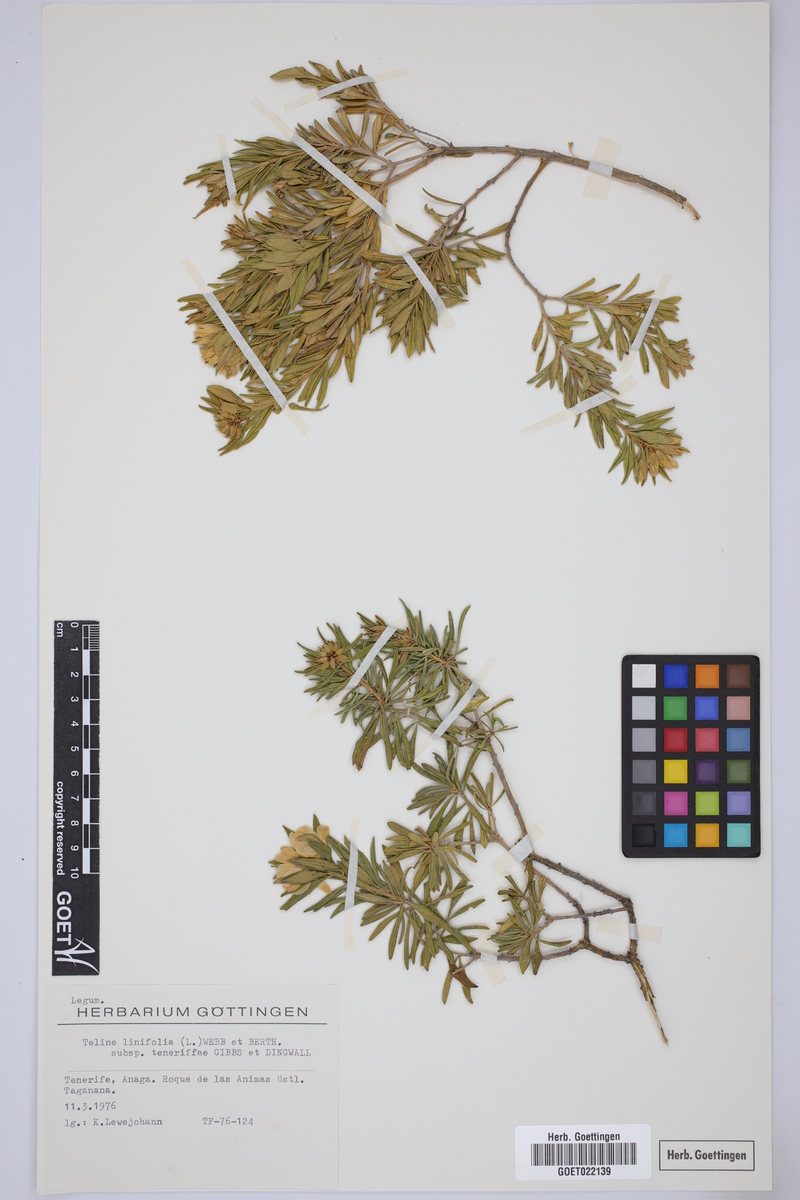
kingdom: Plantae
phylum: Tracheophyta
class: Magnoliopsida
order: Fabales
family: Fabaceae
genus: Genista
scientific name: Genista linifolia
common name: Mediterranean broom
